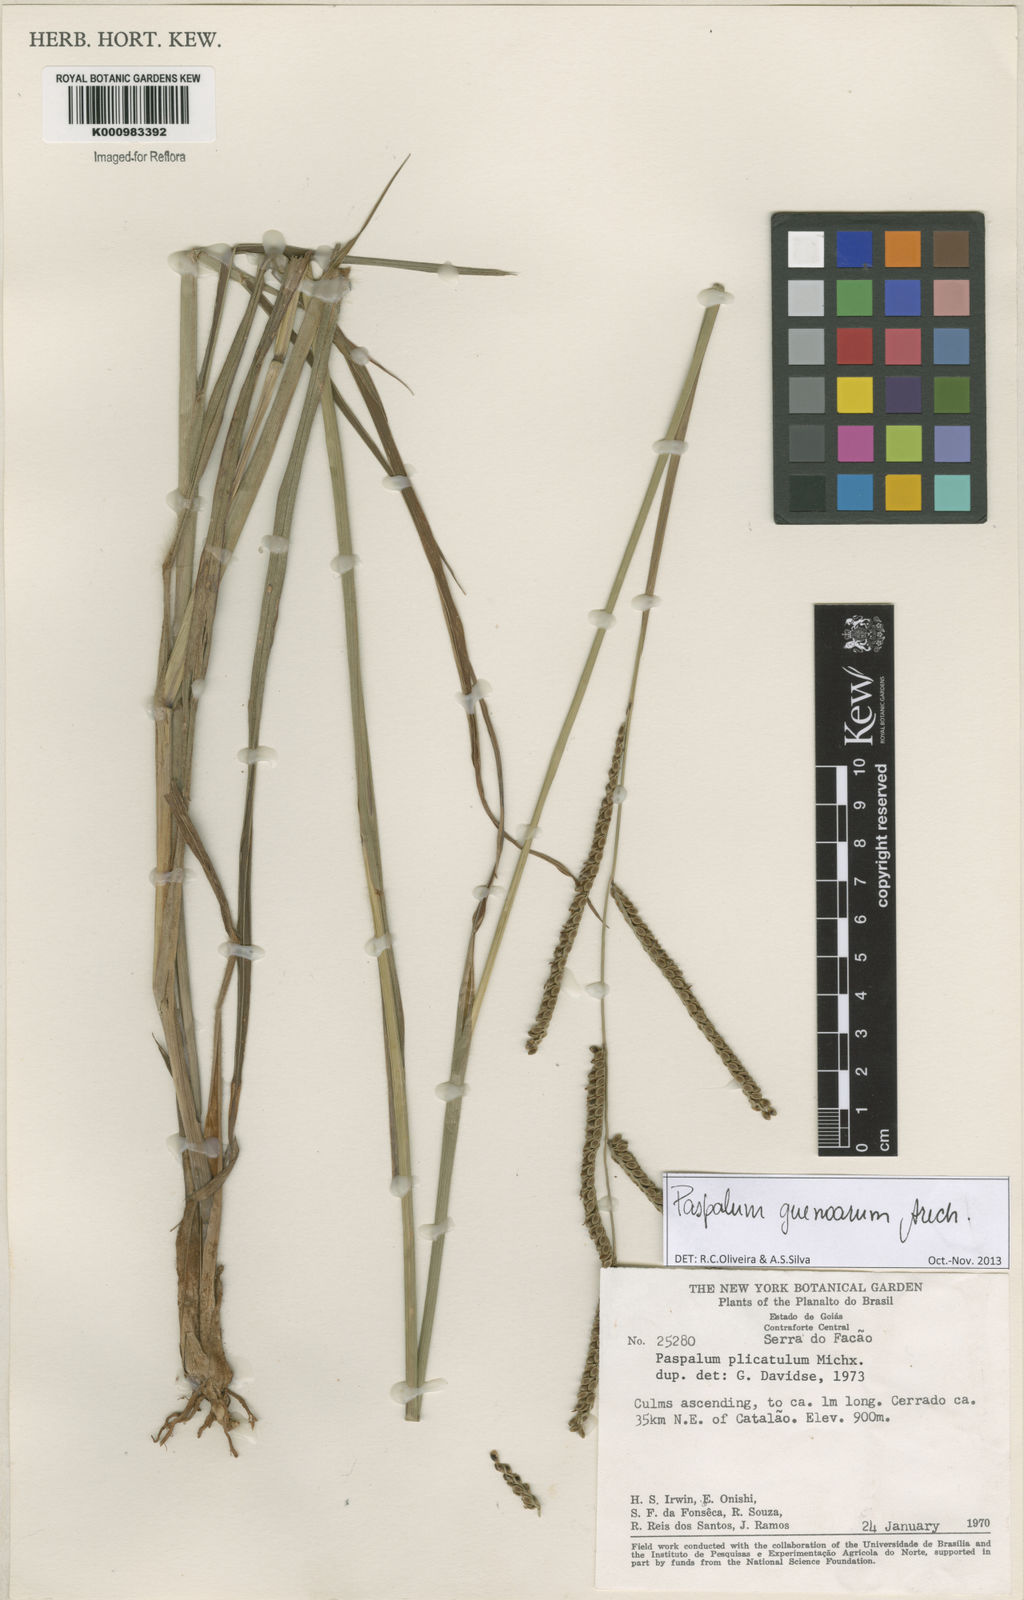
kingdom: Plantae
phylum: Tracheophyta
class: Liliopsida
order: Poales
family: Poaceae
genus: Paspalum
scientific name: Paspalum guenoarum
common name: Wintergreen paspalum
